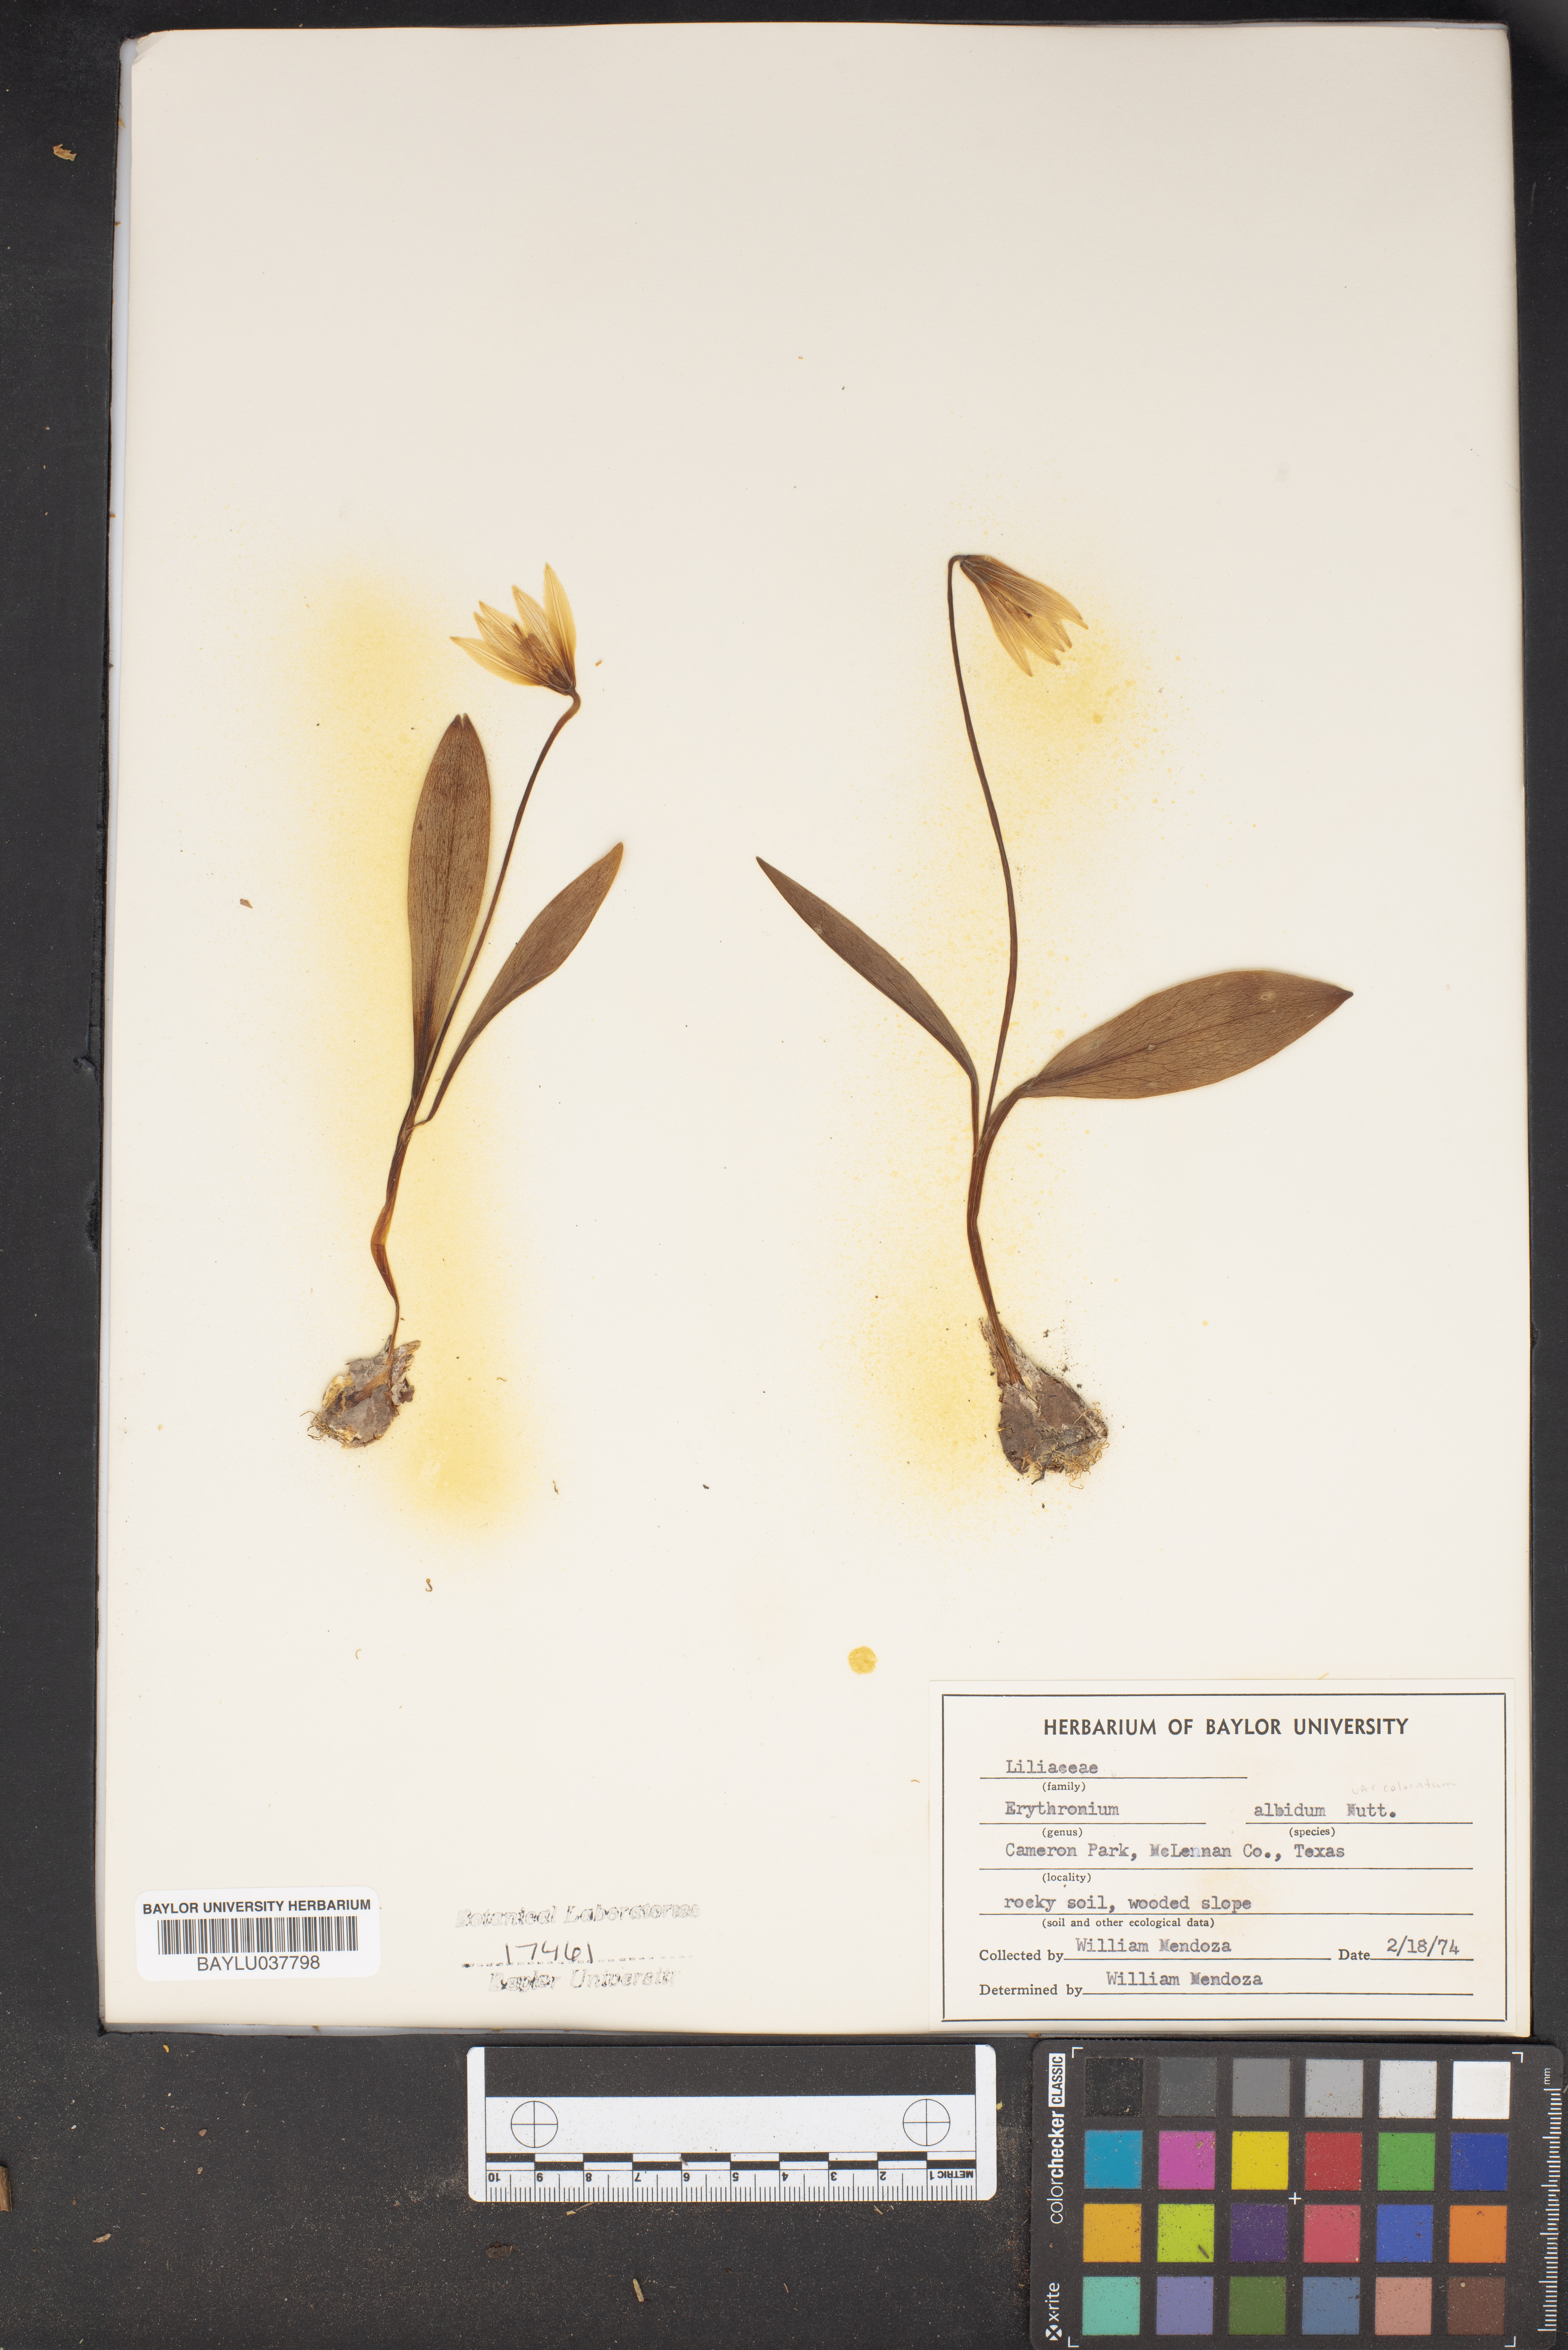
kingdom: Plantae
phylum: Tracheophyta
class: Liliopsida
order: Liliales
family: Liliaceae
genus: Erythronium
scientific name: Erythronium albidum
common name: White trout-lily
